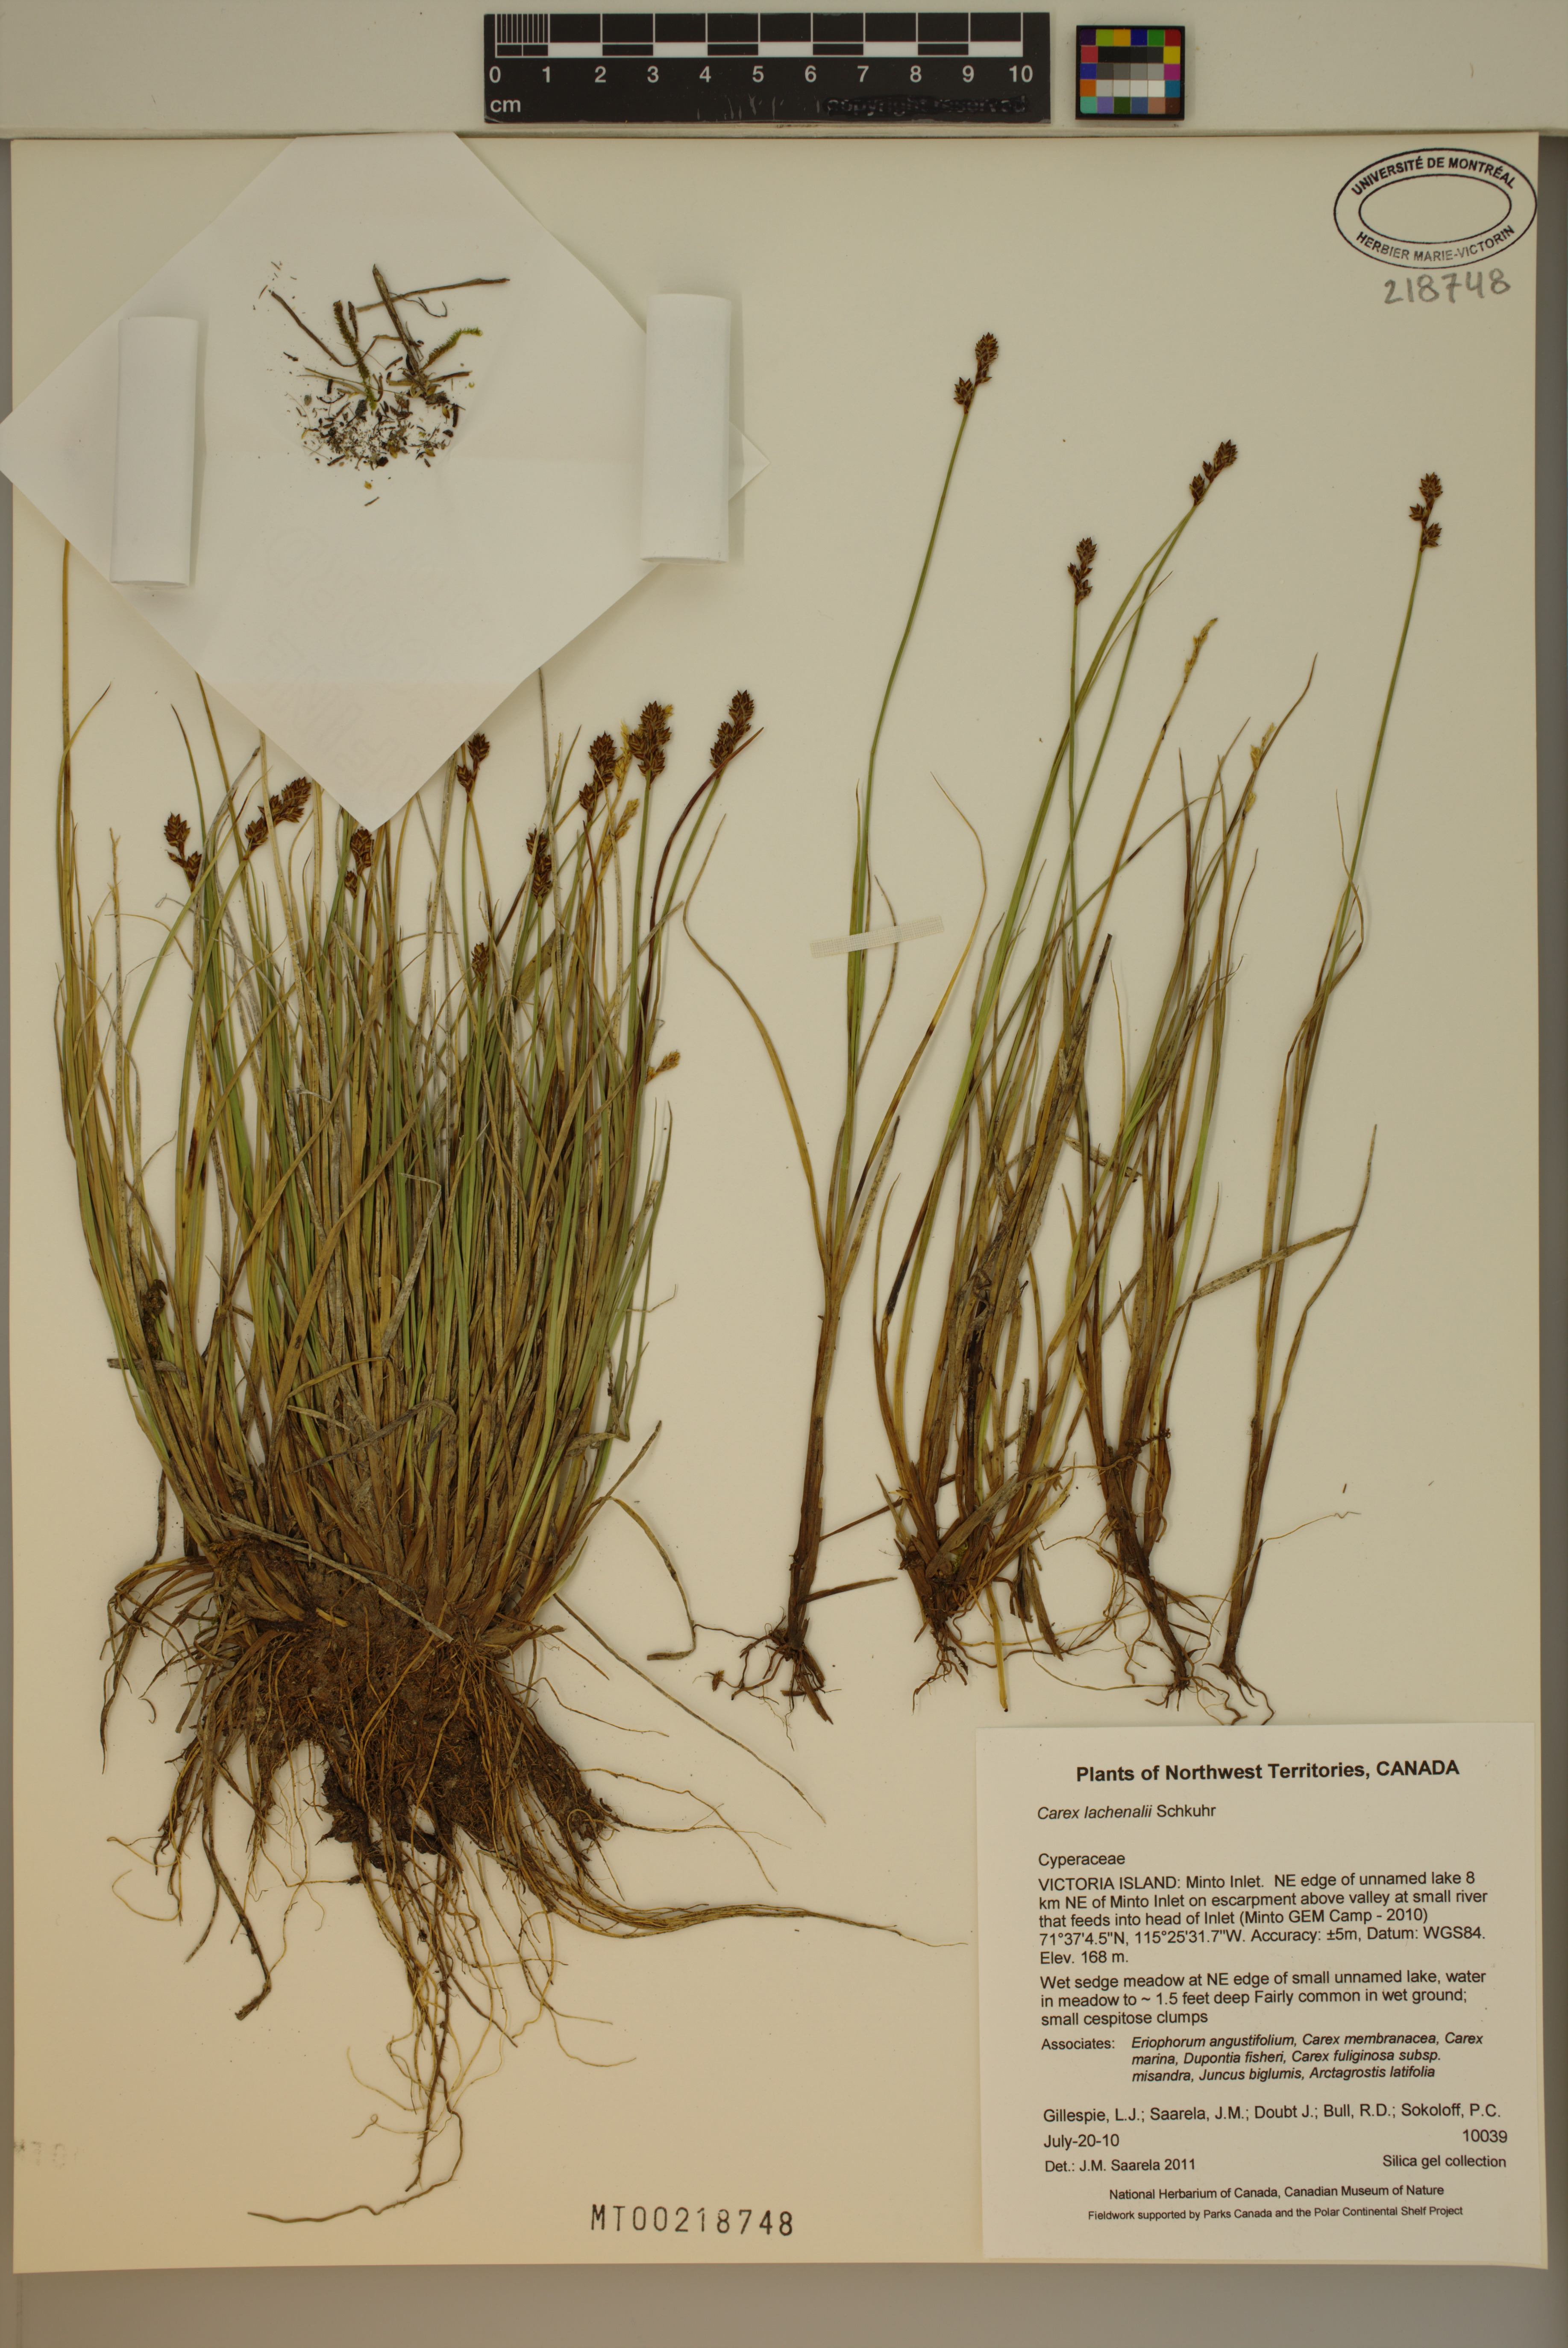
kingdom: Plantae
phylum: Tracheophyta
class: Liliopsida
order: Poales
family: Cyperaceae
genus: Carex
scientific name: Carex lachenalii
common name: Hare's-foot sedge
